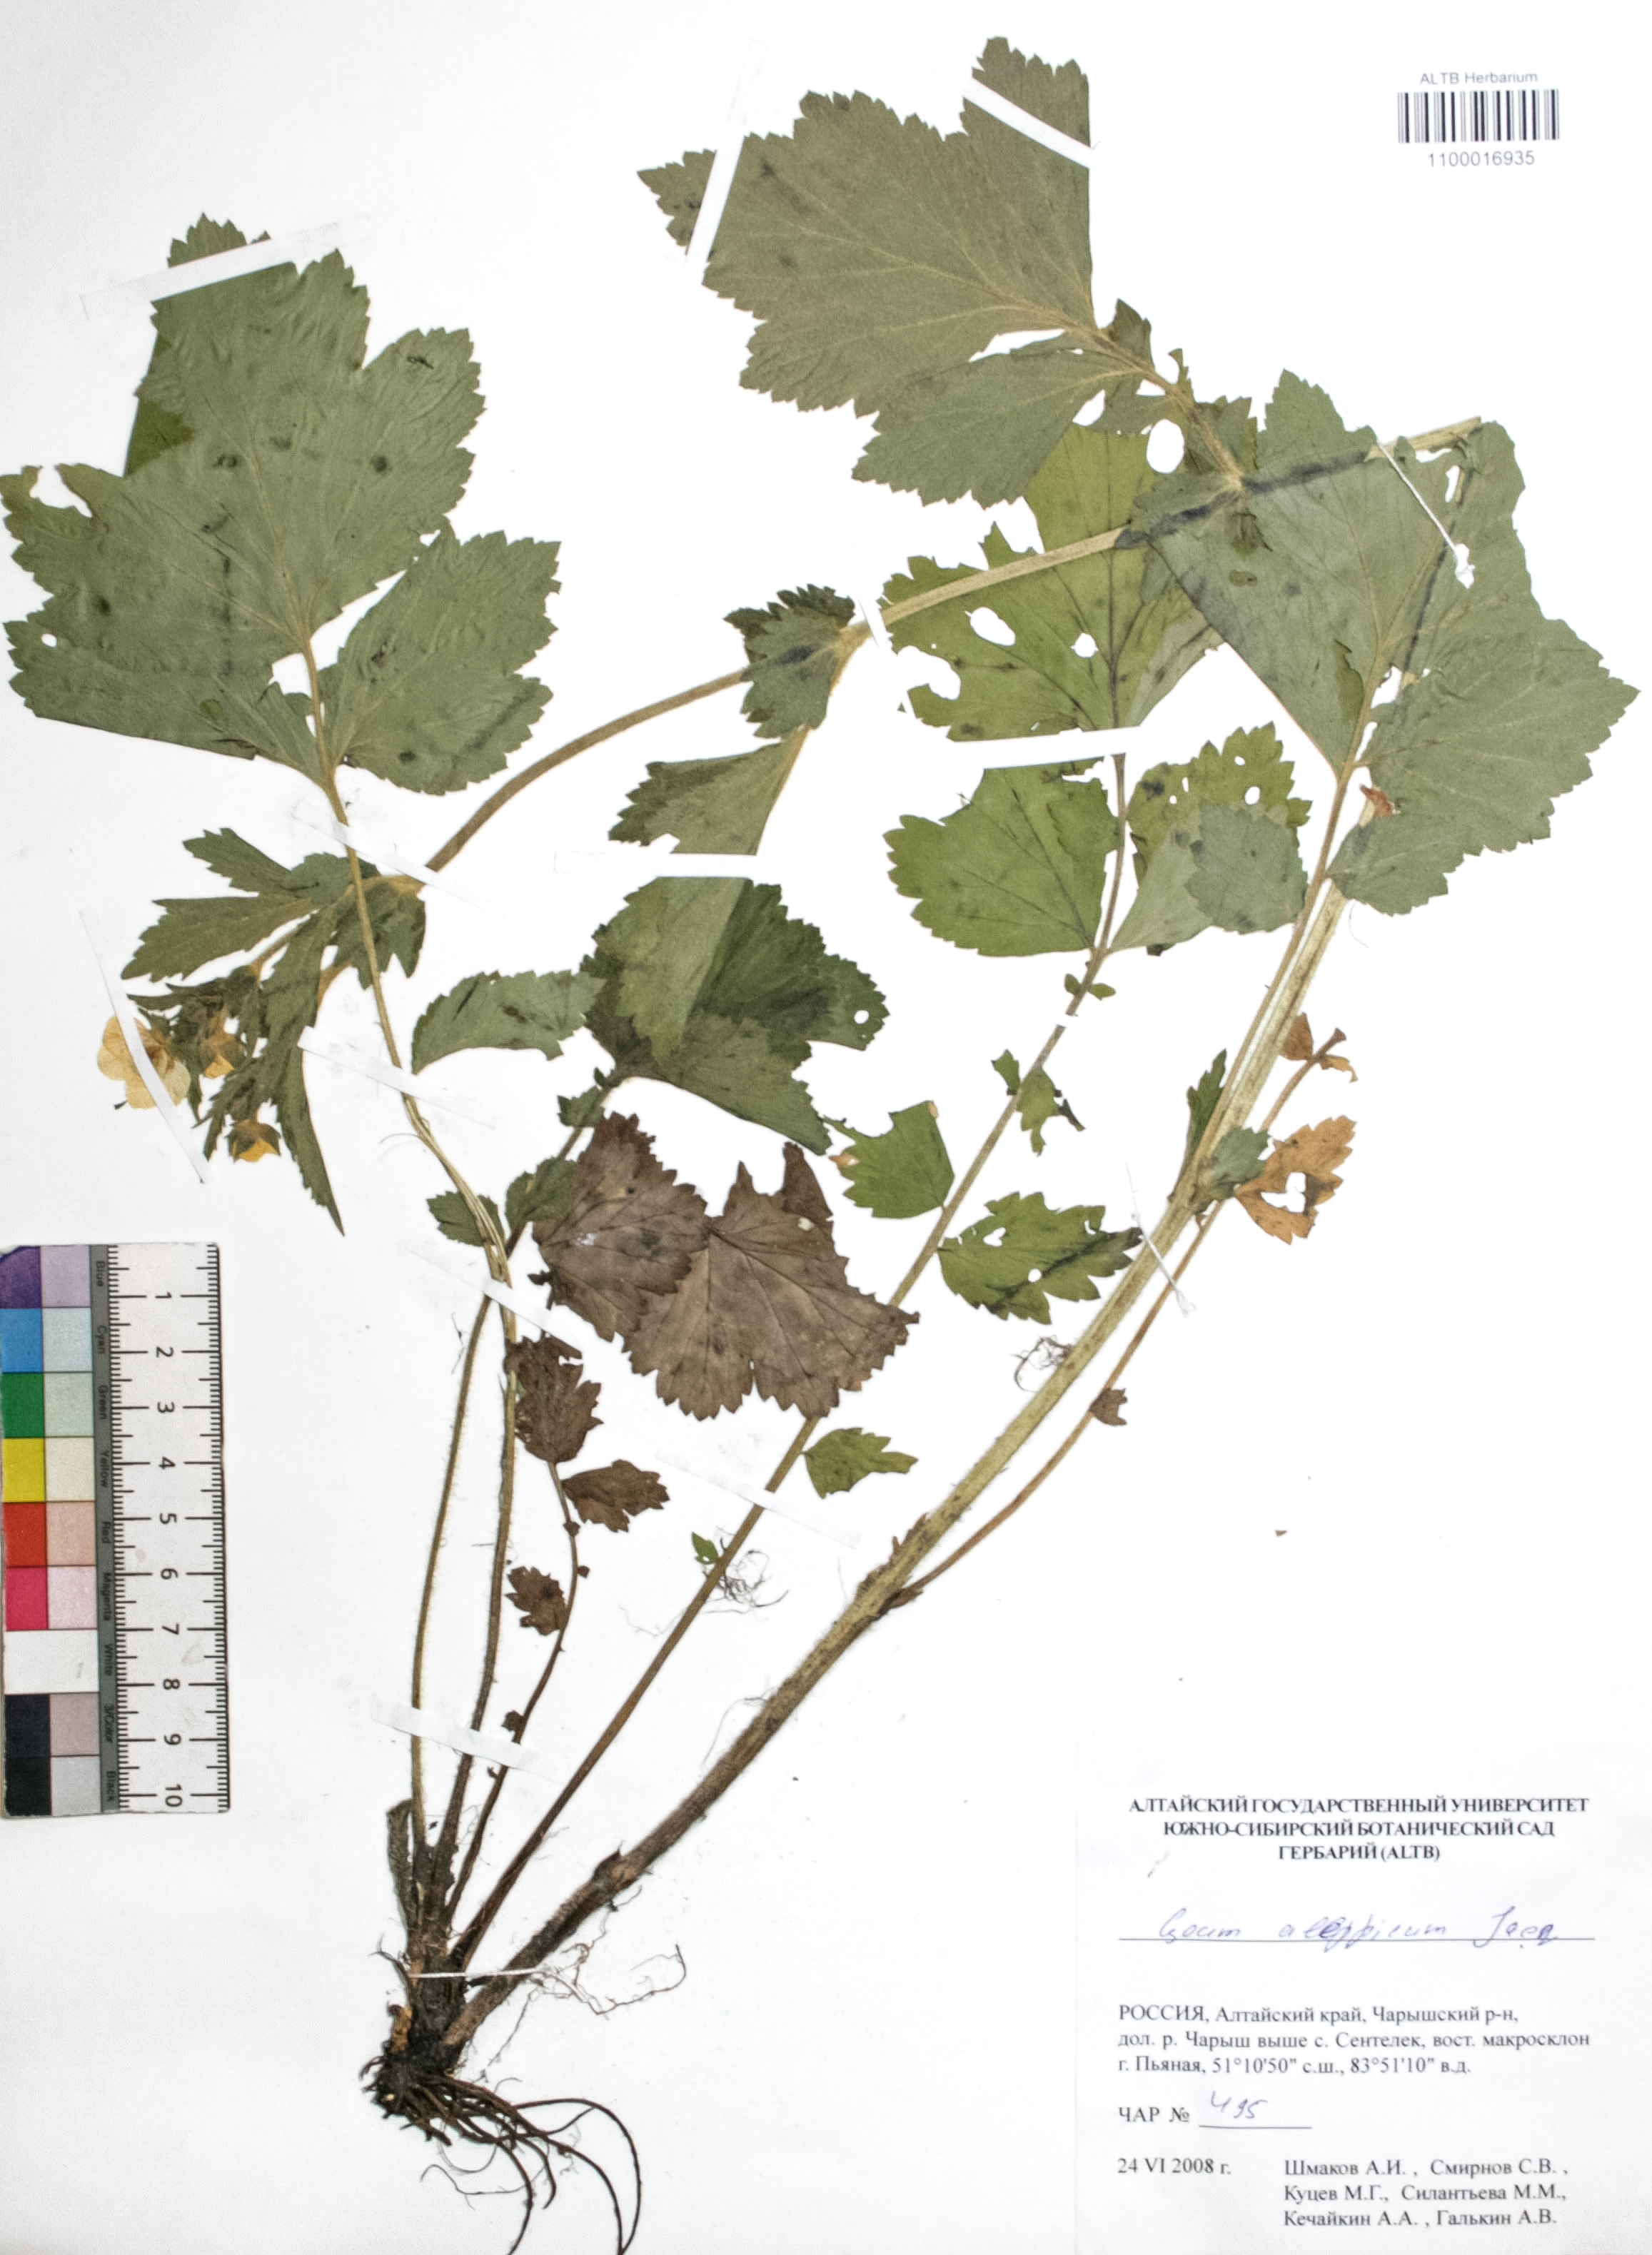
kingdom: Plantae
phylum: Tracheophyta
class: Magnoliopsida
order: Rosales
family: Rosaceae
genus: Geum
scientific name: Geum aleppicum
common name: Yellow avens
